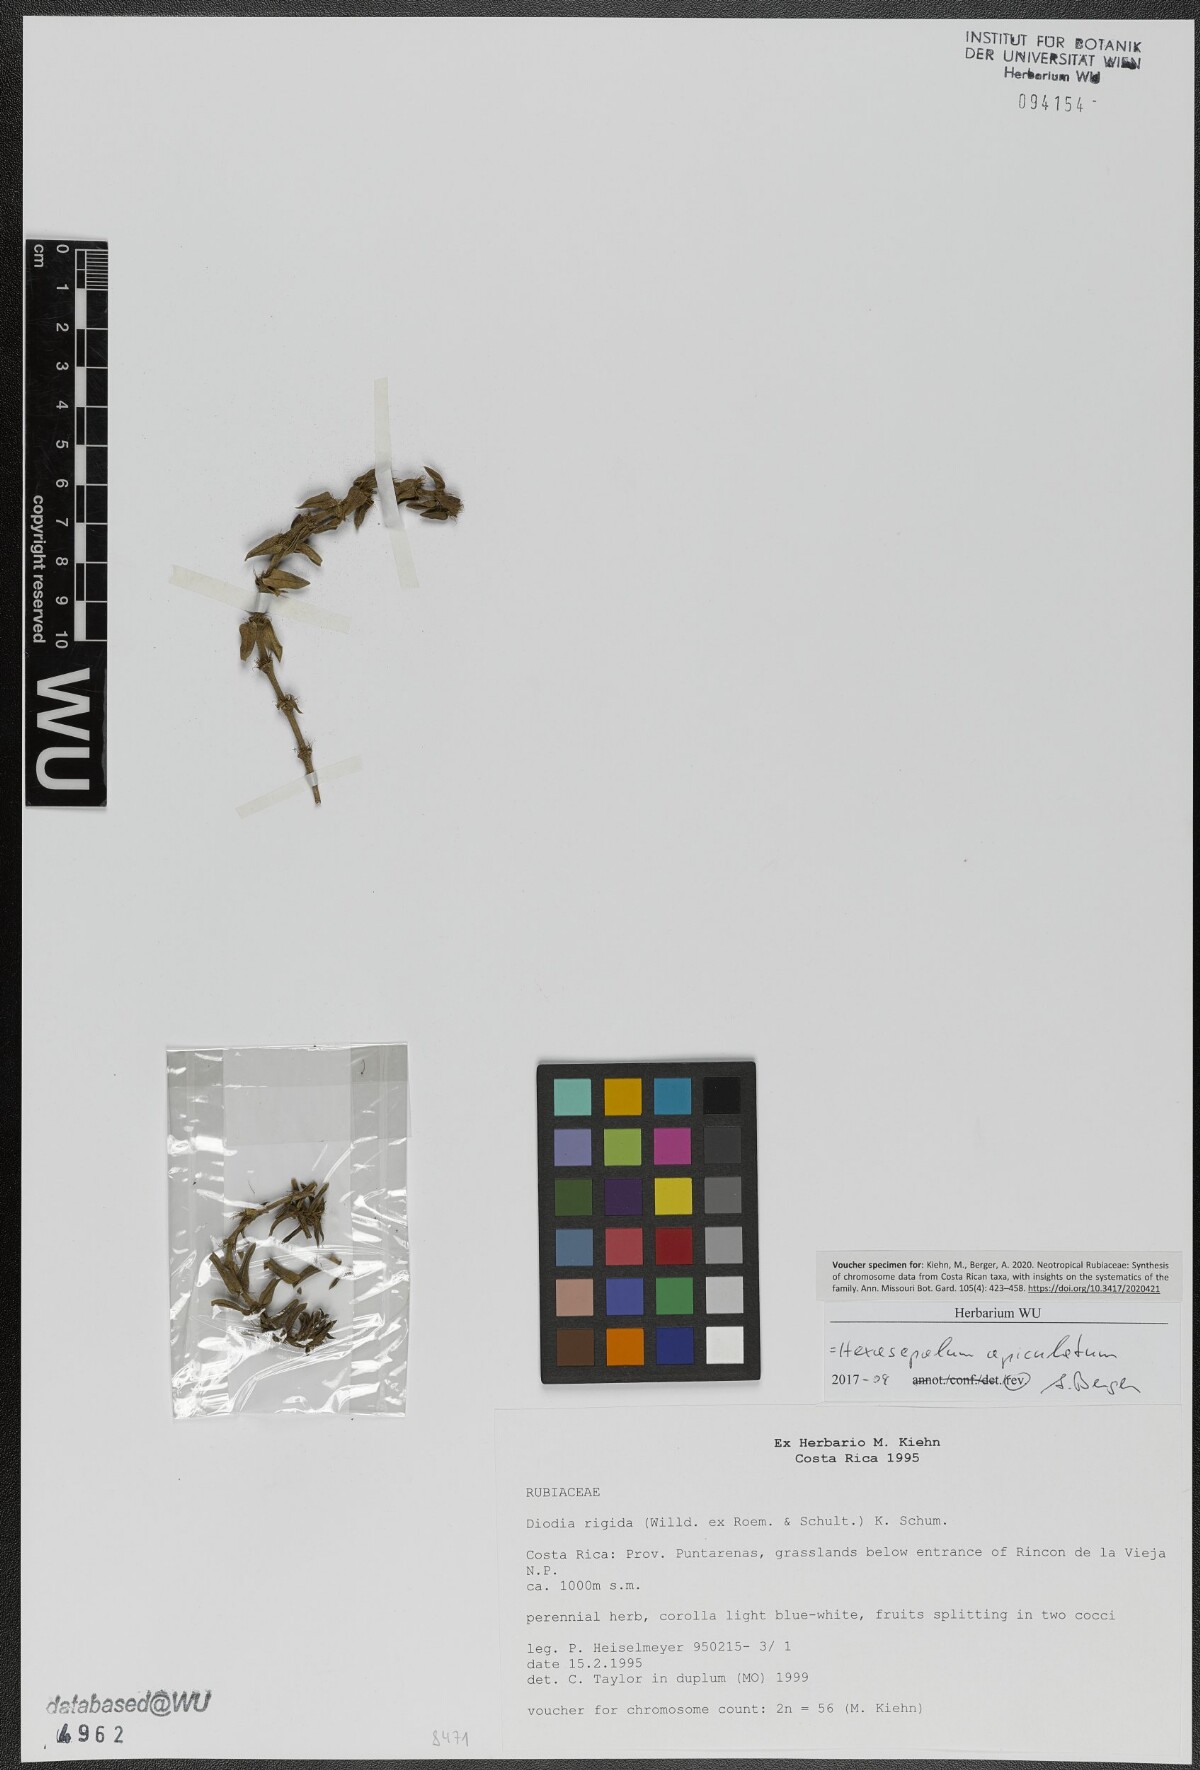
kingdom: Plantae
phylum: Tracheophyta
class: Magnoliopsida
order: Gentianales
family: Rubiaceae
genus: Hexasepalum
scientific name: Hexasepalum apiculatum
